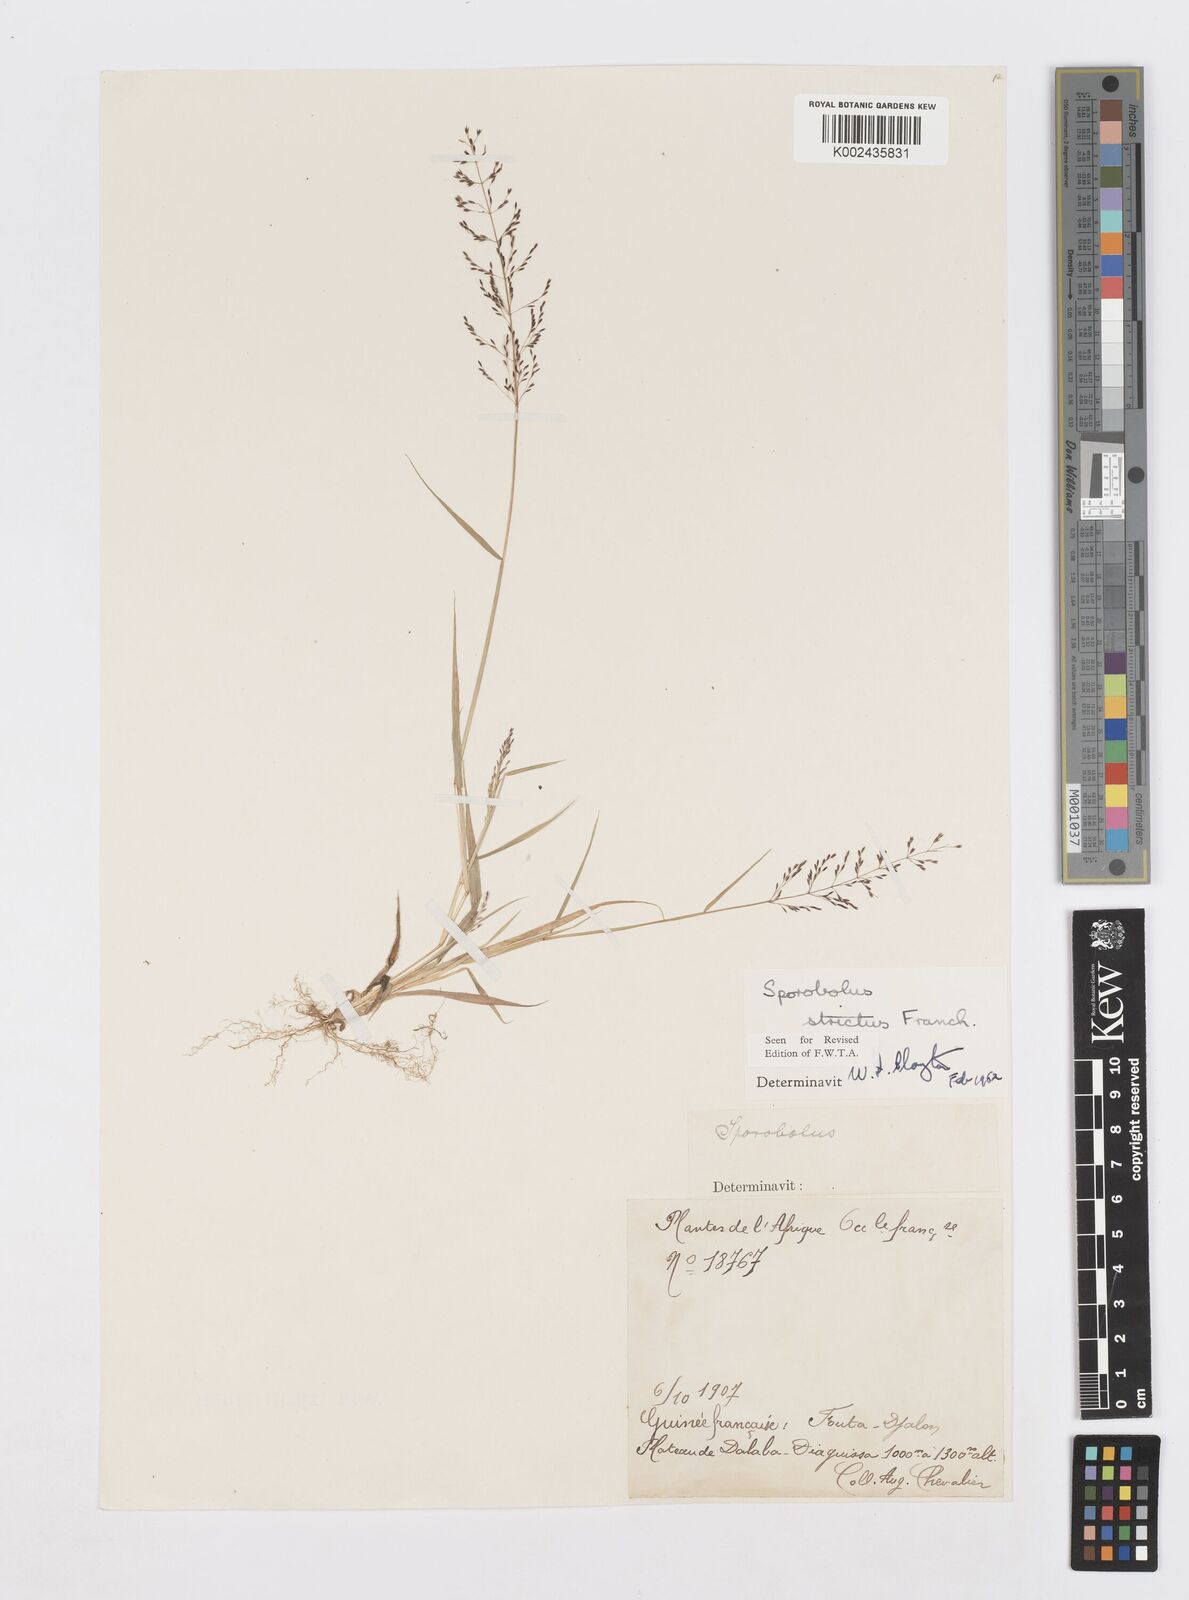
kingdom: Plantae
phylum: Tracheophyta
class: Liliopsida
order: Poales
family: Poaceae
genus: Sporobolus
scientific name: Sporobolus paniculatus
